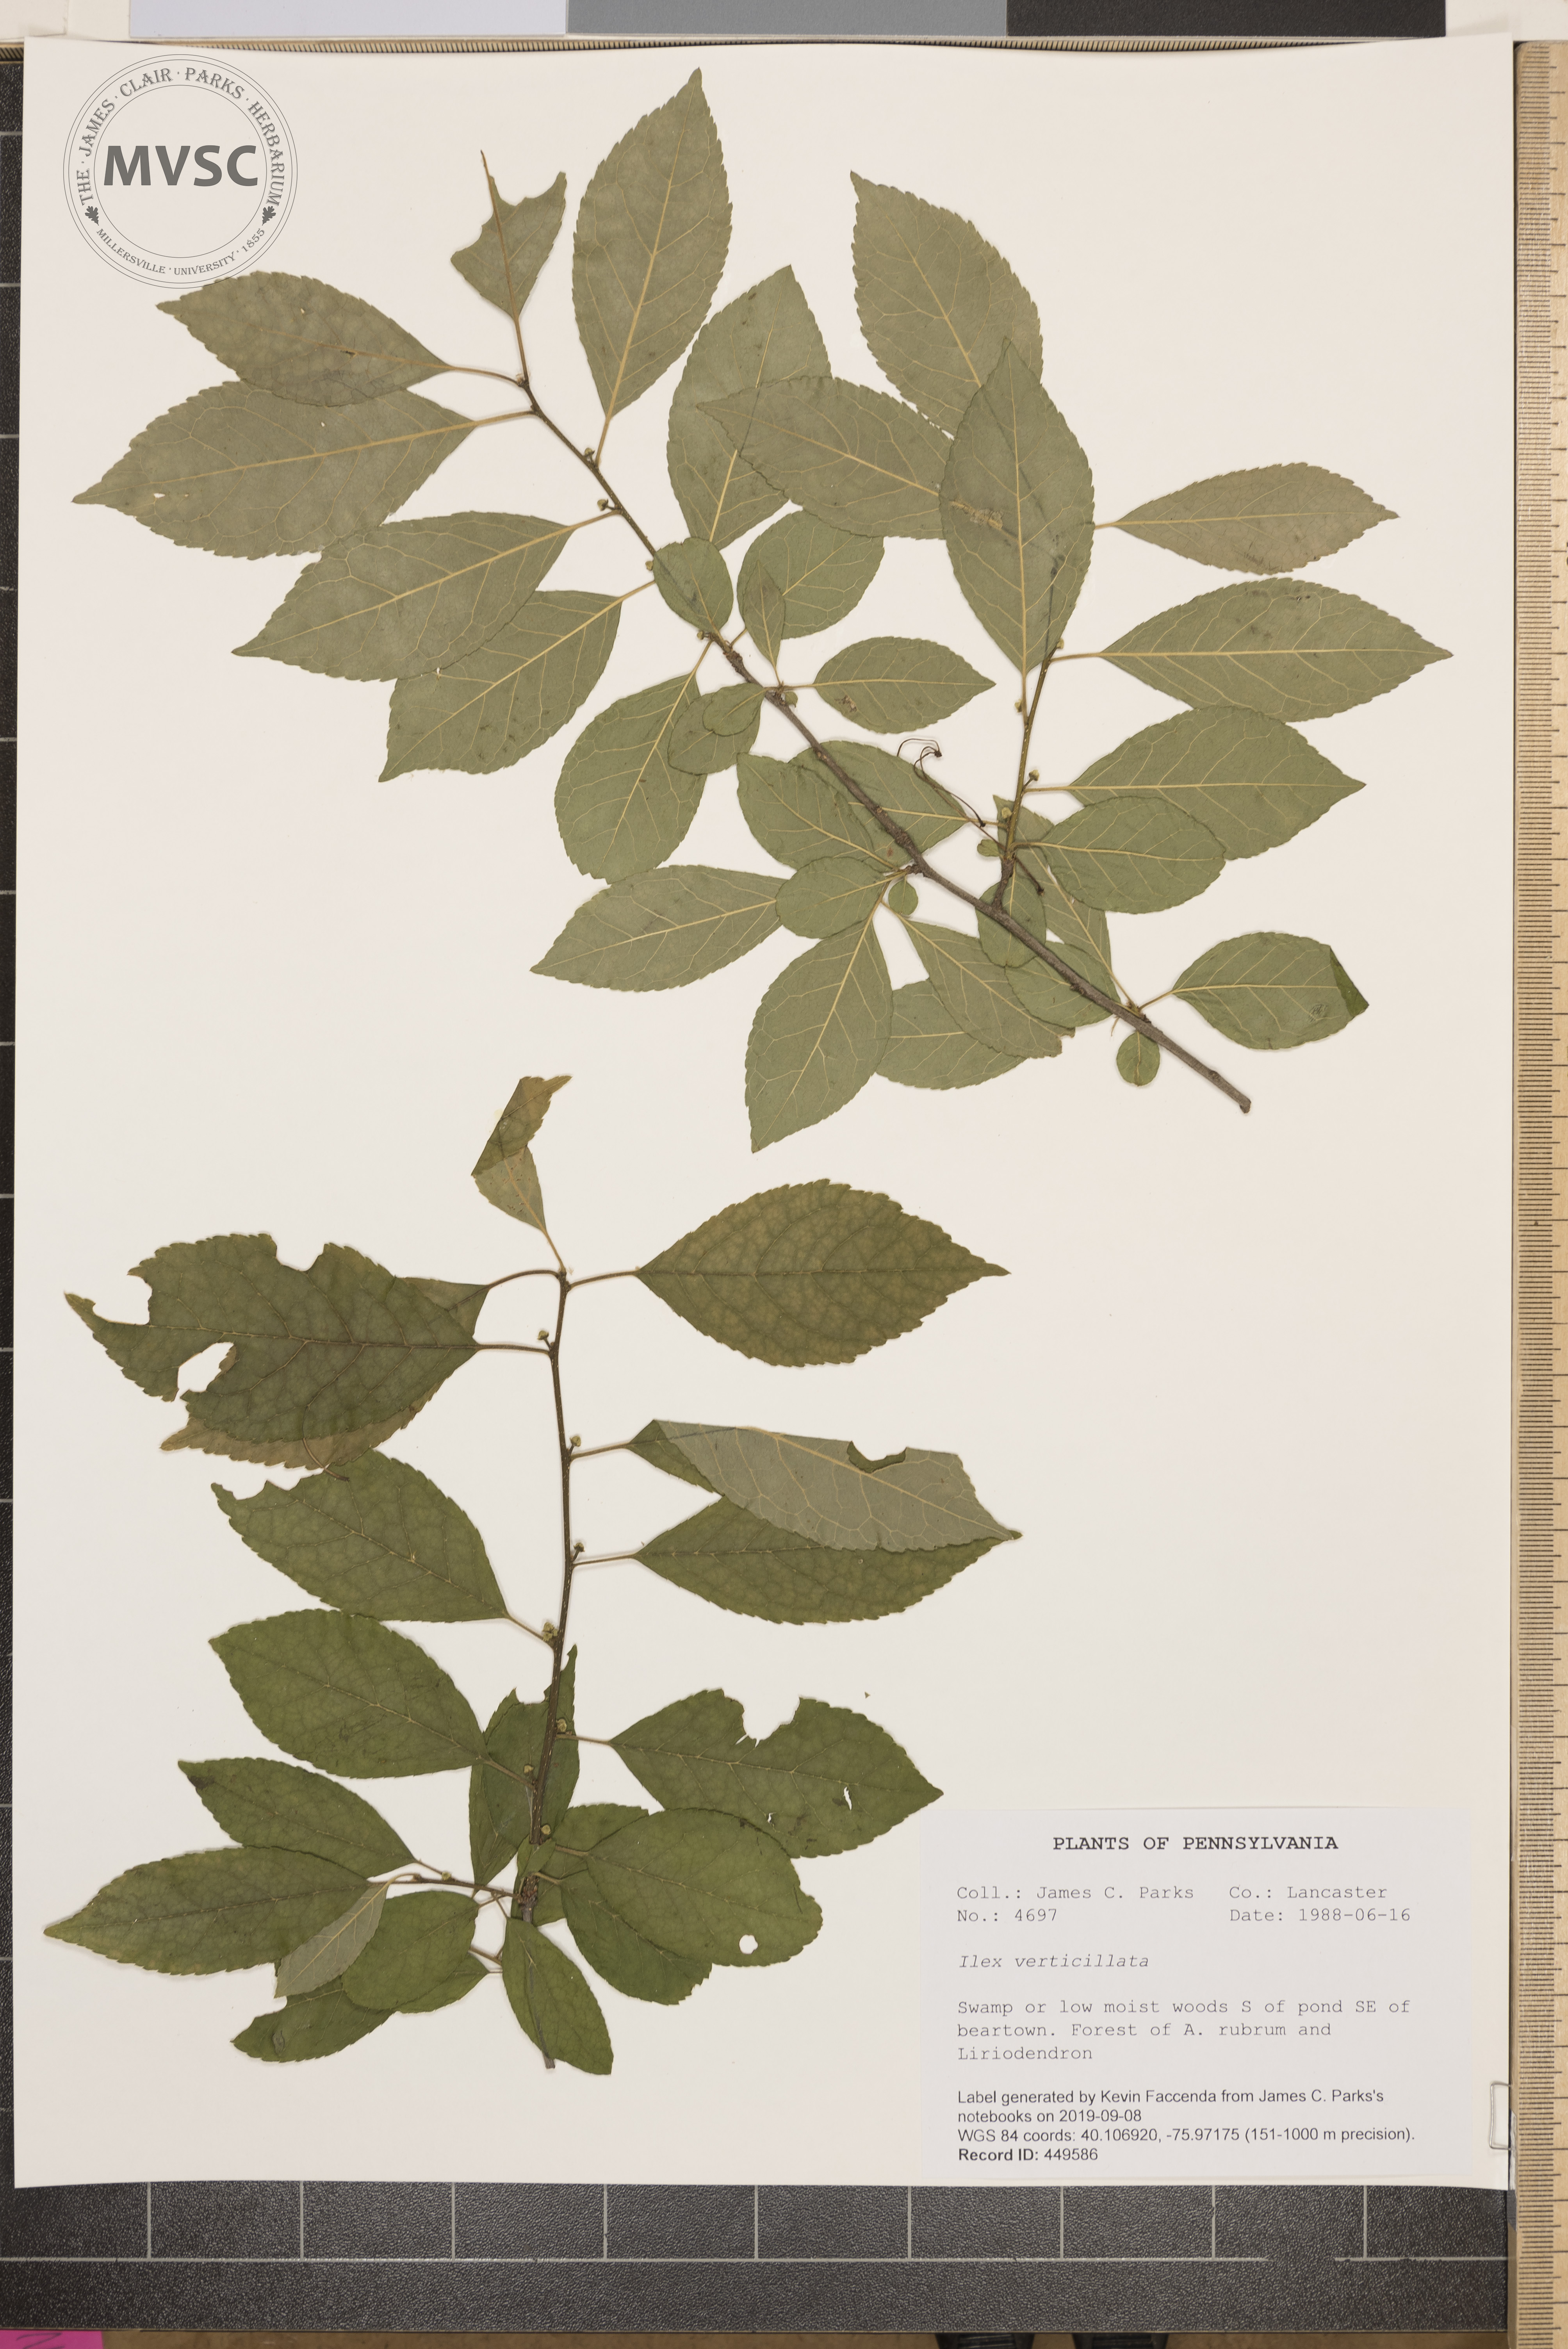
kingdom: Plantae
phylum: Tracheophyta
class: Magnoliopsida
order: Aquifoliales
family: Aquifoliaceae
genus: Ilex
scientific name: Ilex verticillata
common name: Virginia winterberry
